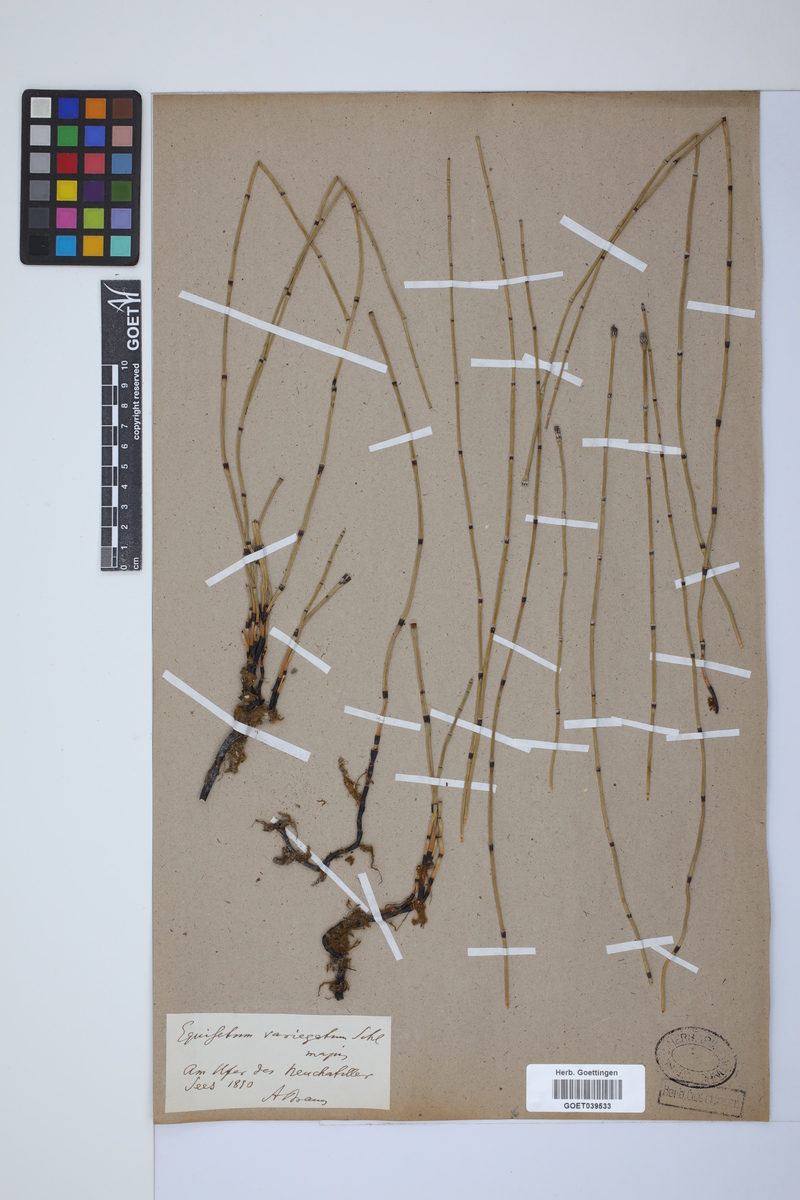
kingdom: Plantae
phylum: Tracheophyta
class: Polypodiopsida
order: Equisetales
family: Equisetaceae
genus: Equisetum
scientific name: Equisetum variegatum
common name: Variegated horsetail
